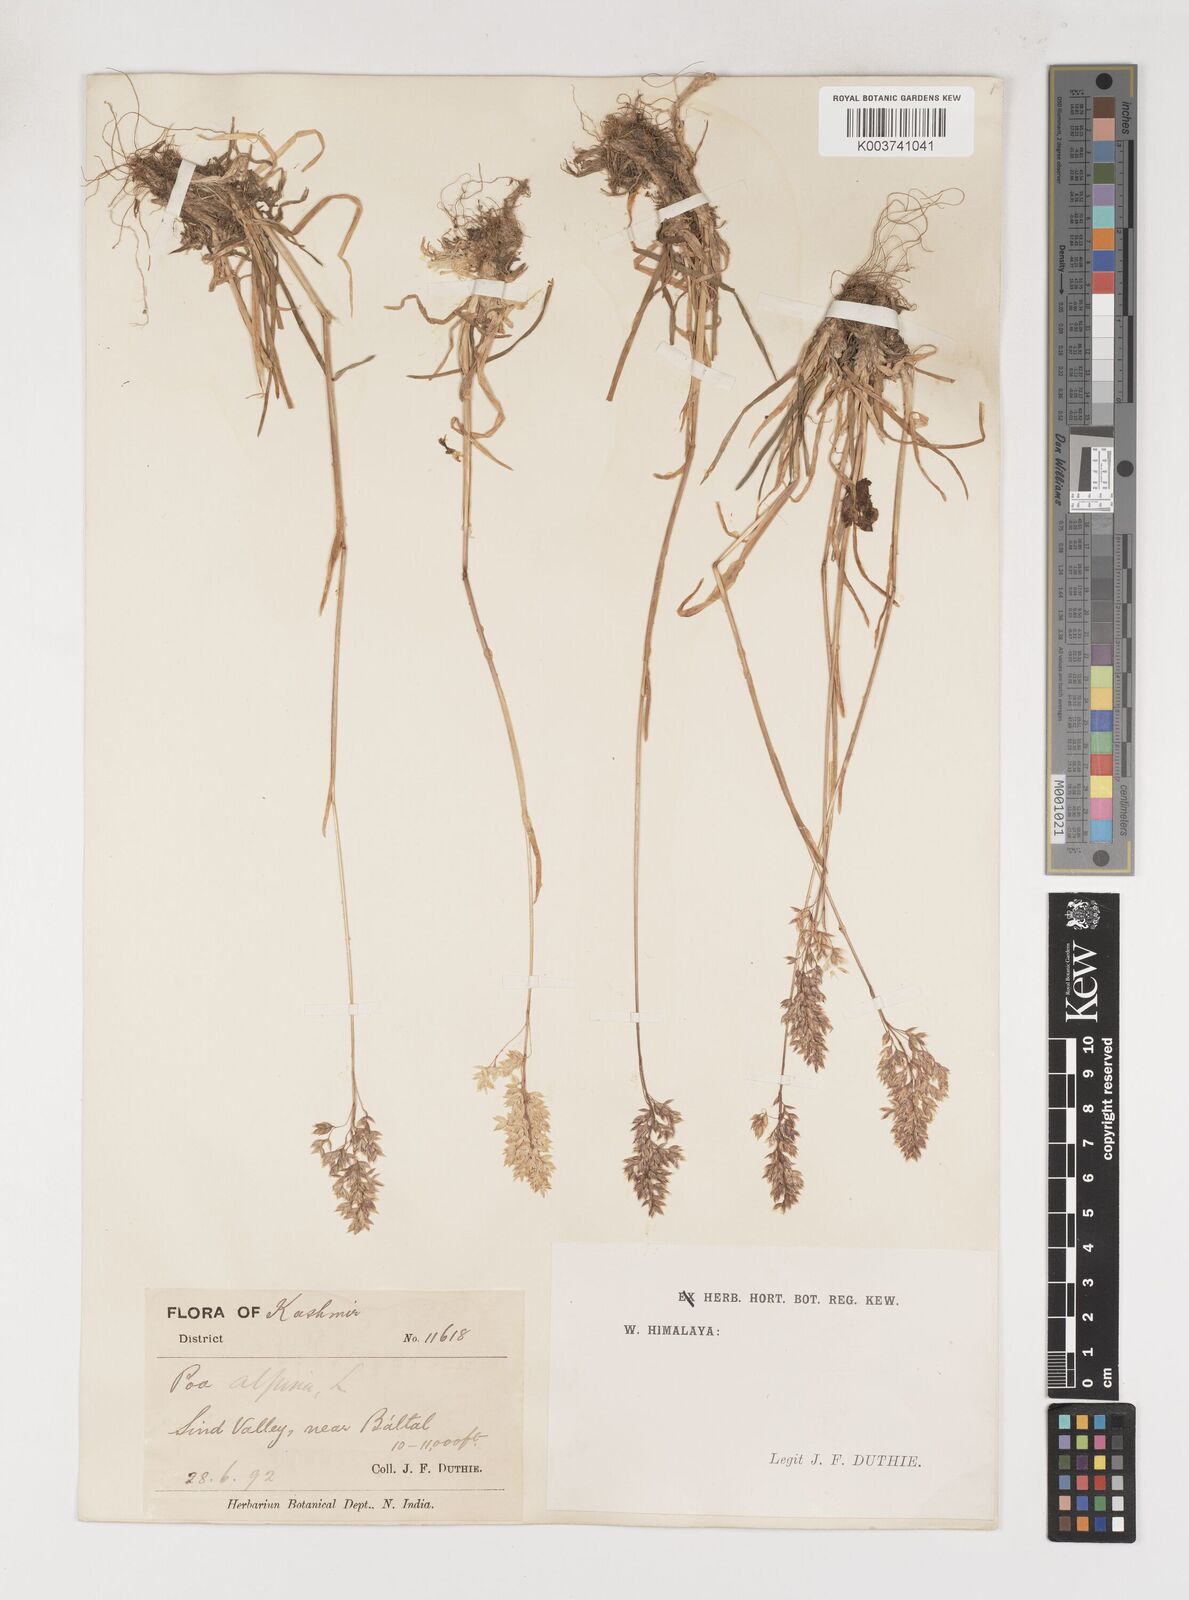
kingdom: Plantae
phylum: Tracheophyta
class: Liliopsida
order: Poales
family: Poaceae
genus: Poa
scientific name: Poa alpina
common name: Alpine bluegrass
